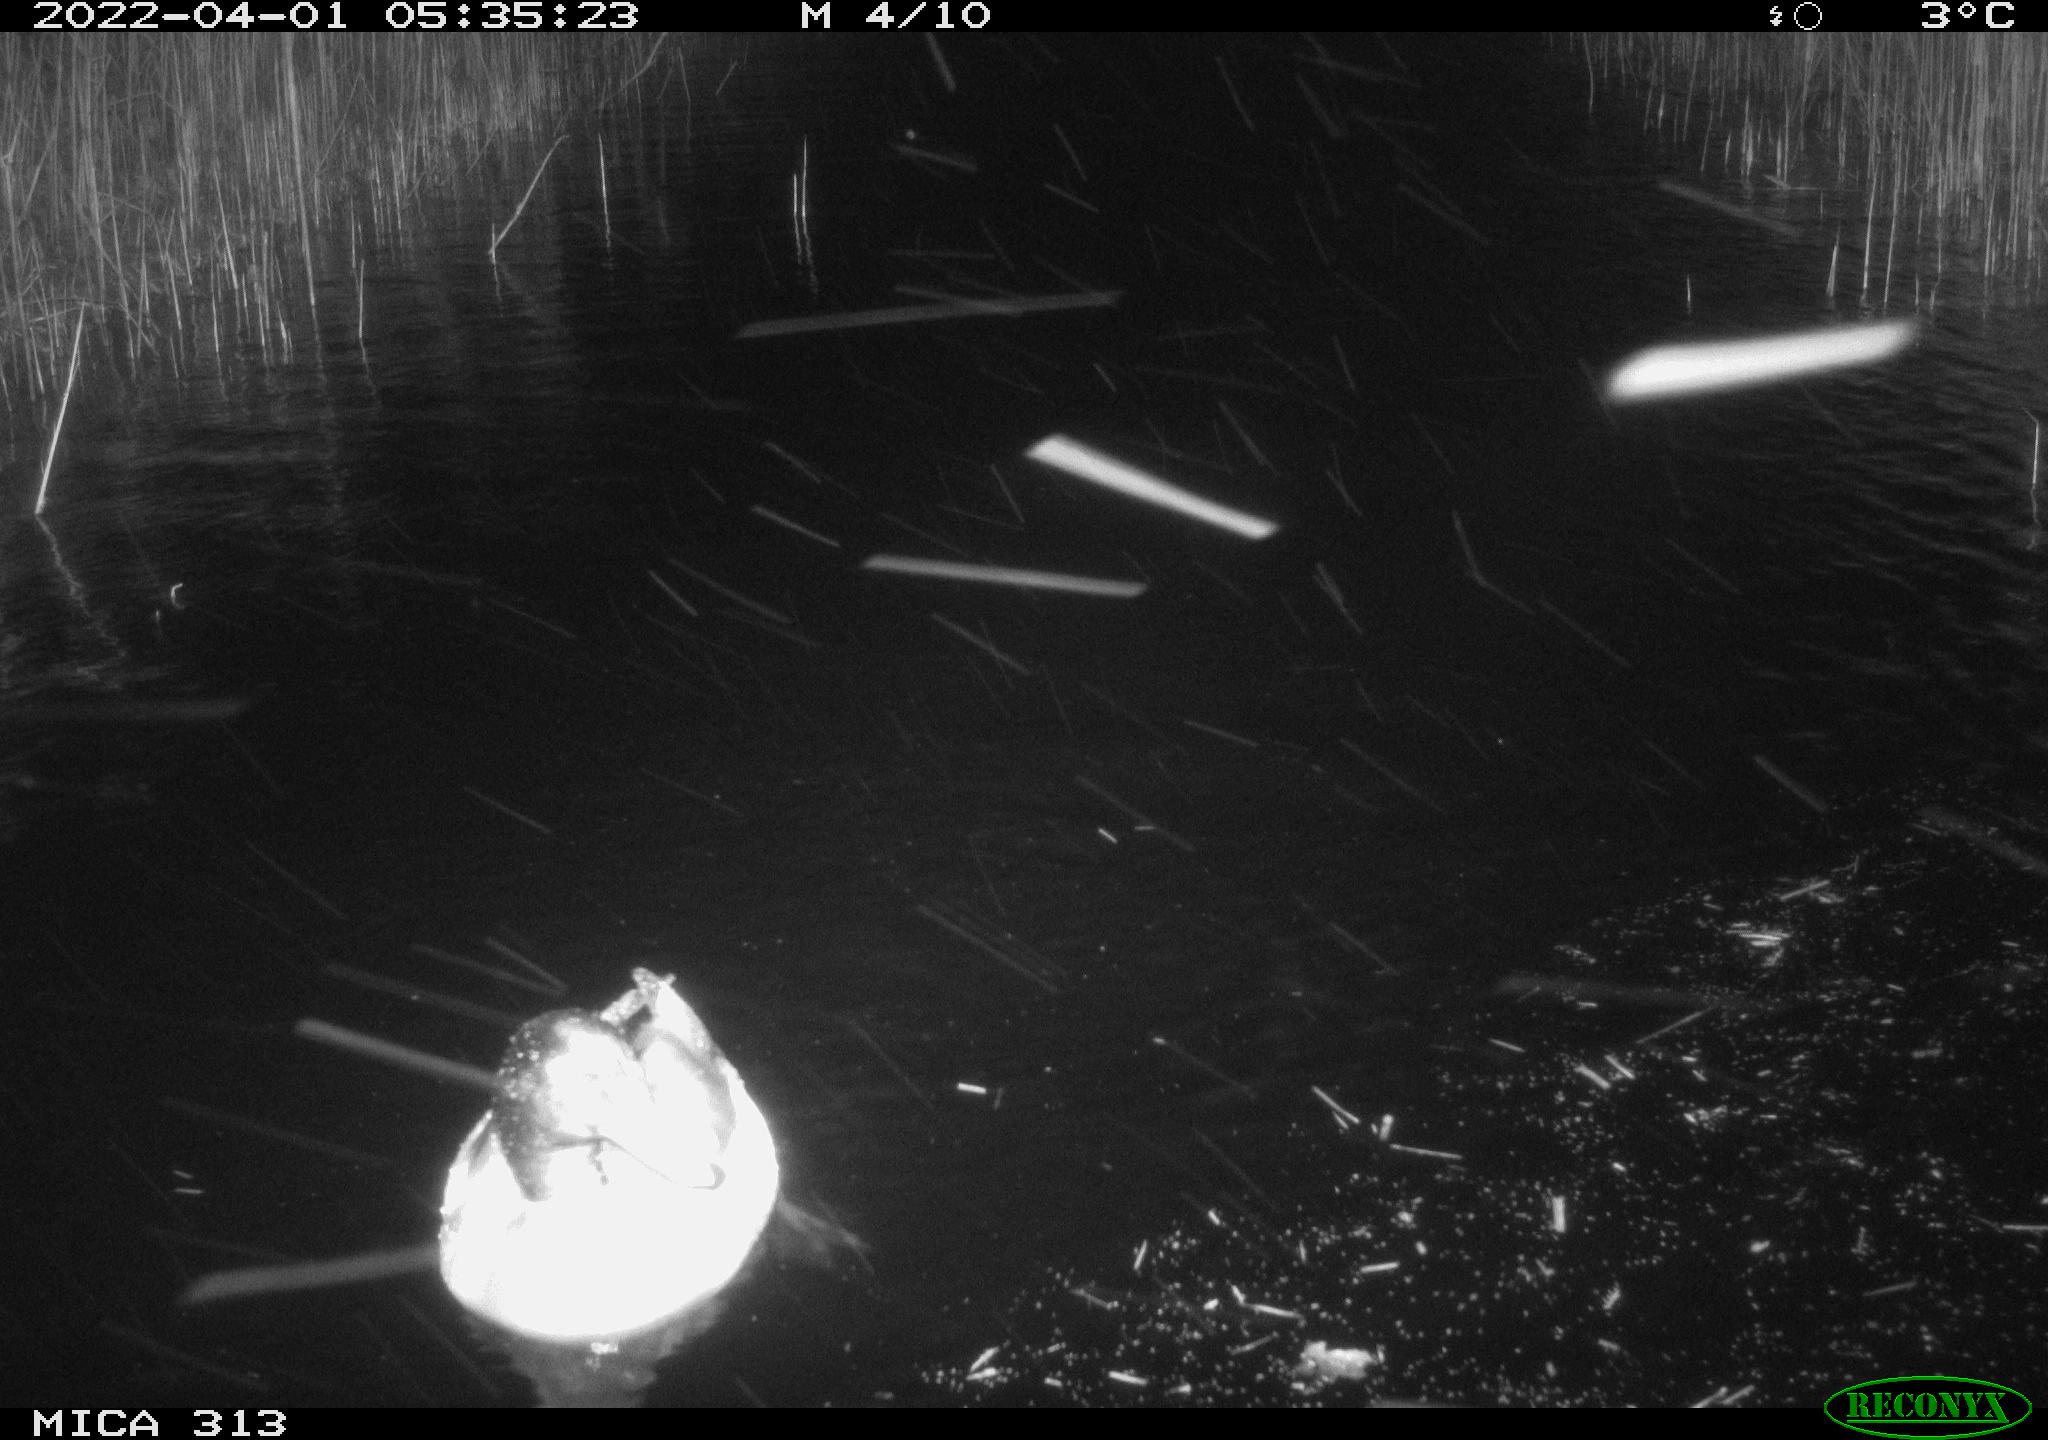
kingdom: Animalia
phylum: Chordata
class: Aves
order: Anseriformes
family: Anatidae
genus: Anas
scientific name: Anas platyrhynchos
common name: Mallard
